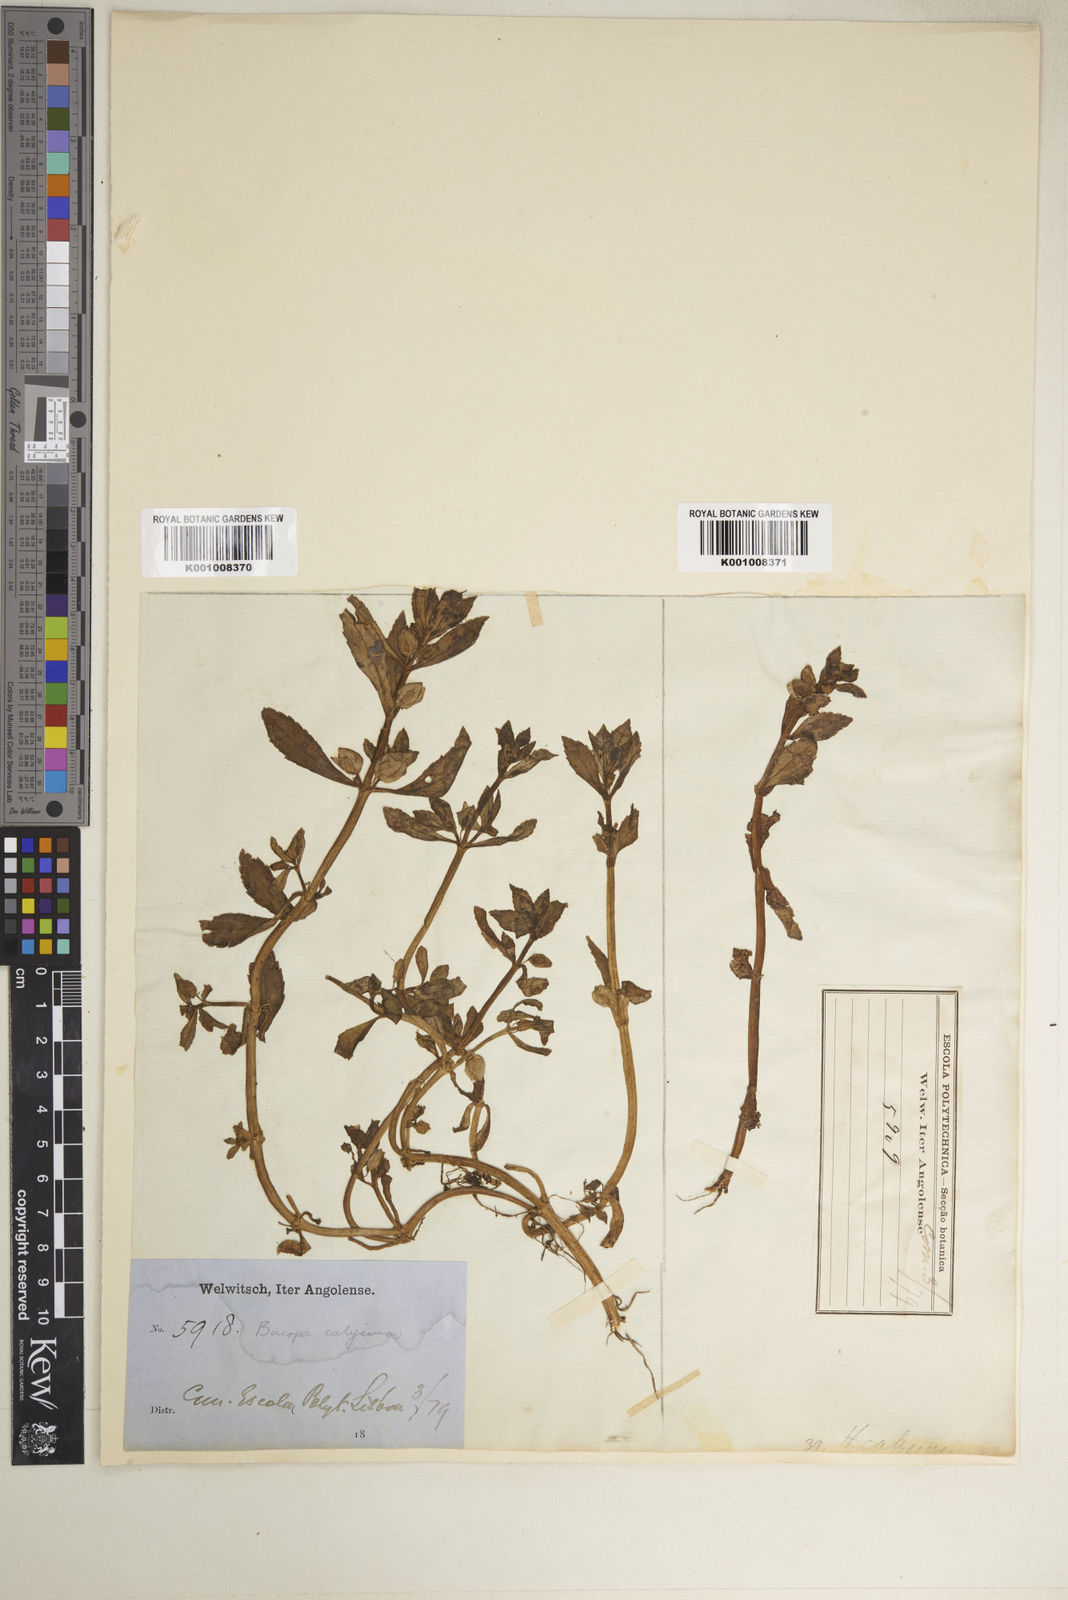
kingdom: Plantae
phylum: Tracheophyta
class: Magnoliopsida
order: Lamiales
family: Plantaginaceae
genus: Bacopa
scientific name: Bacopa crenata
